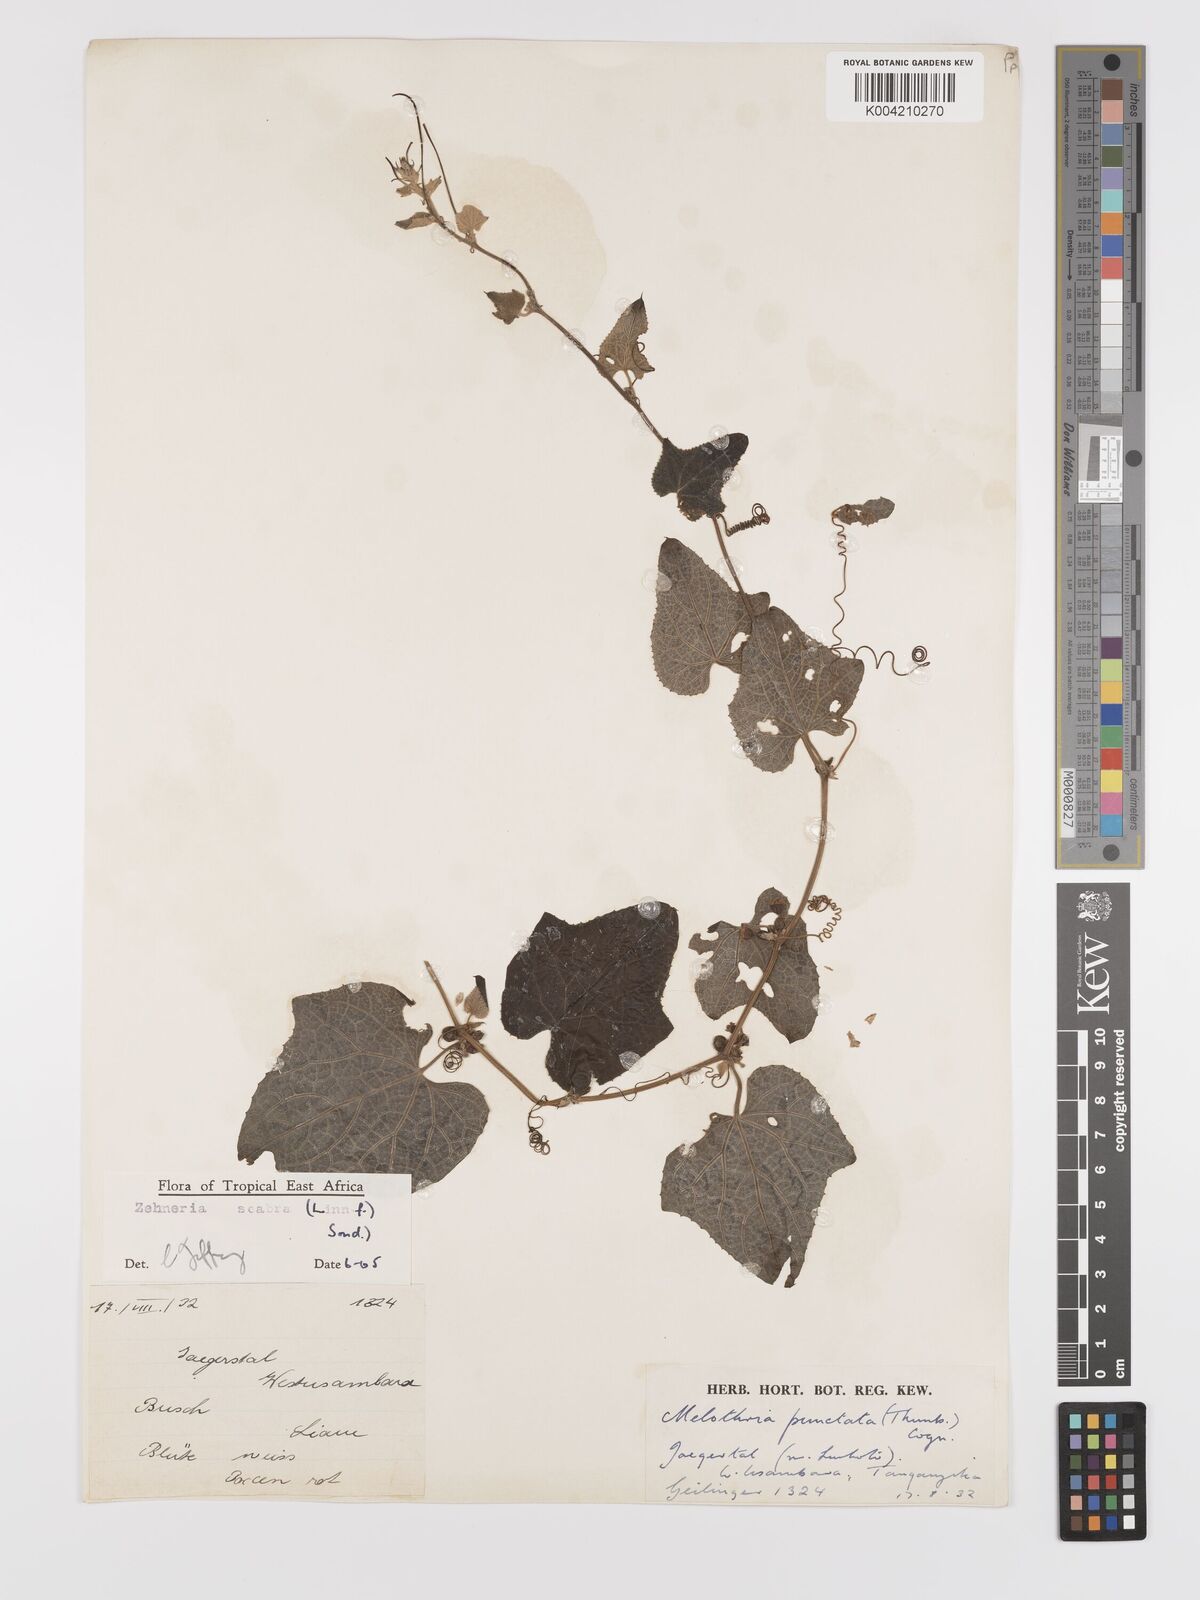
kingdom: Plantae
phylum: Tracheophyta
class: Magnoliopsida
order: Cucurbitales
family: Cucurbitaceae
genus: Zehneria
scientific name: Zehneria scabra
